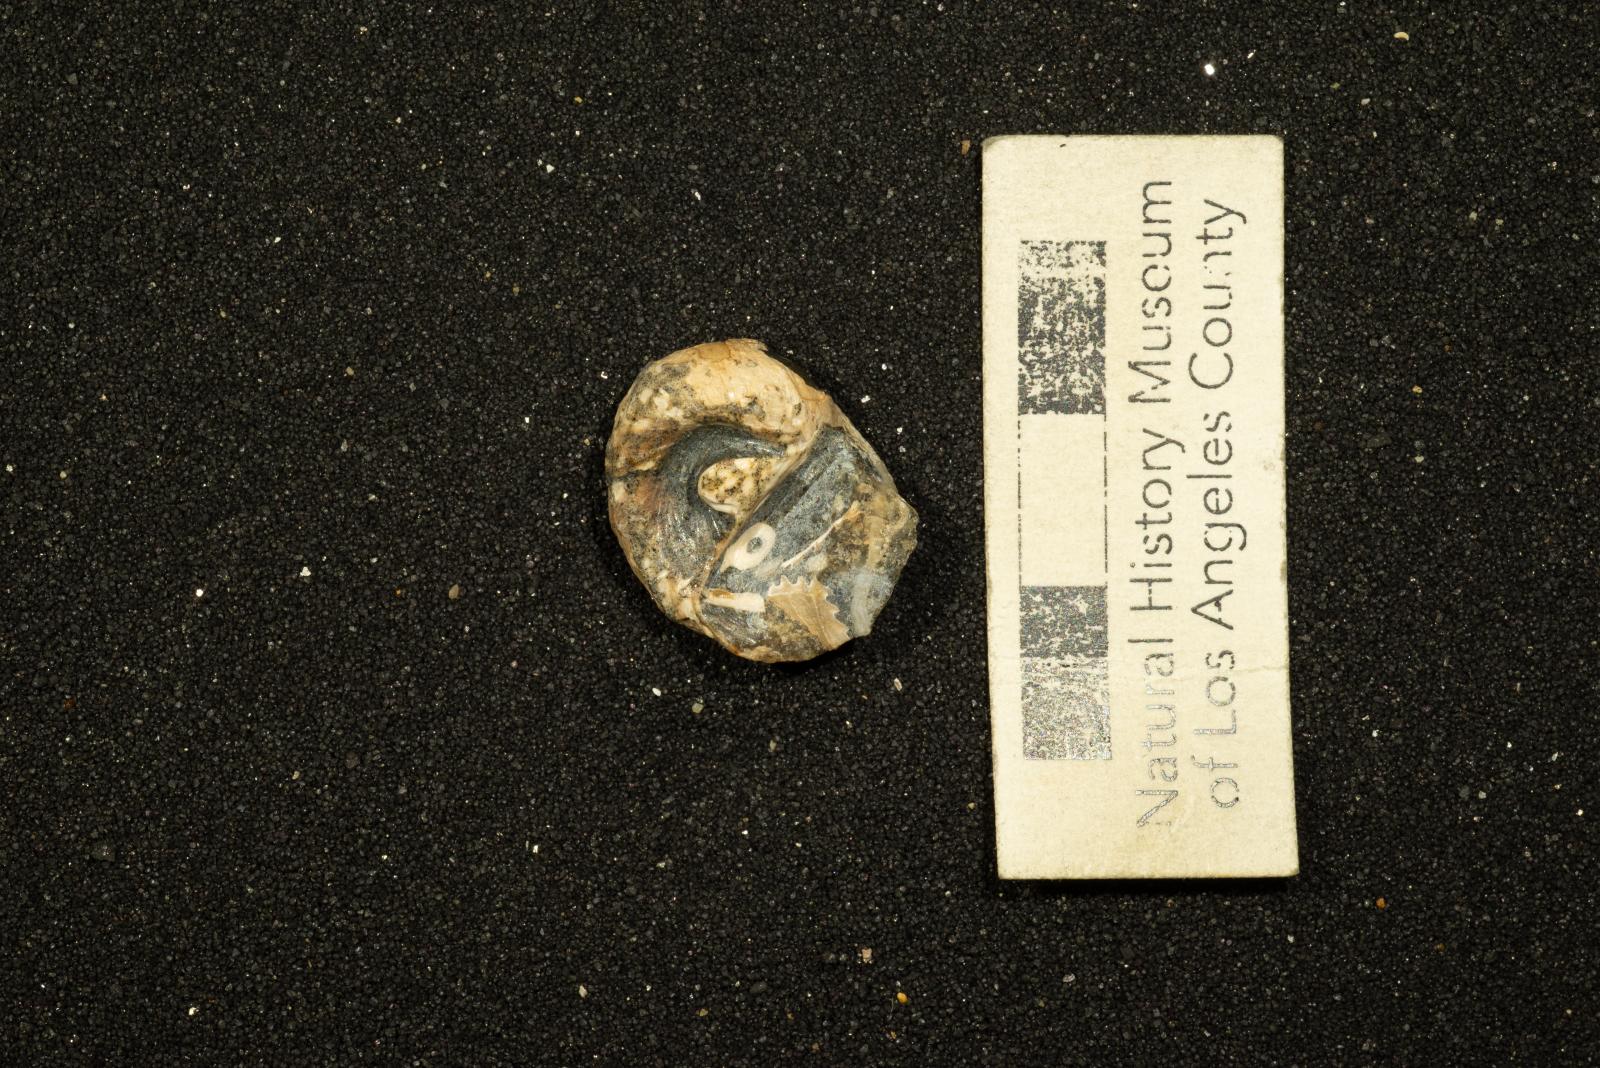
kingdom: Animalia
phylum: Mollusca
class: Gastropoda
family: Gyrodidae
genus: Gyrodes
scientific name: Gyrodes banites
